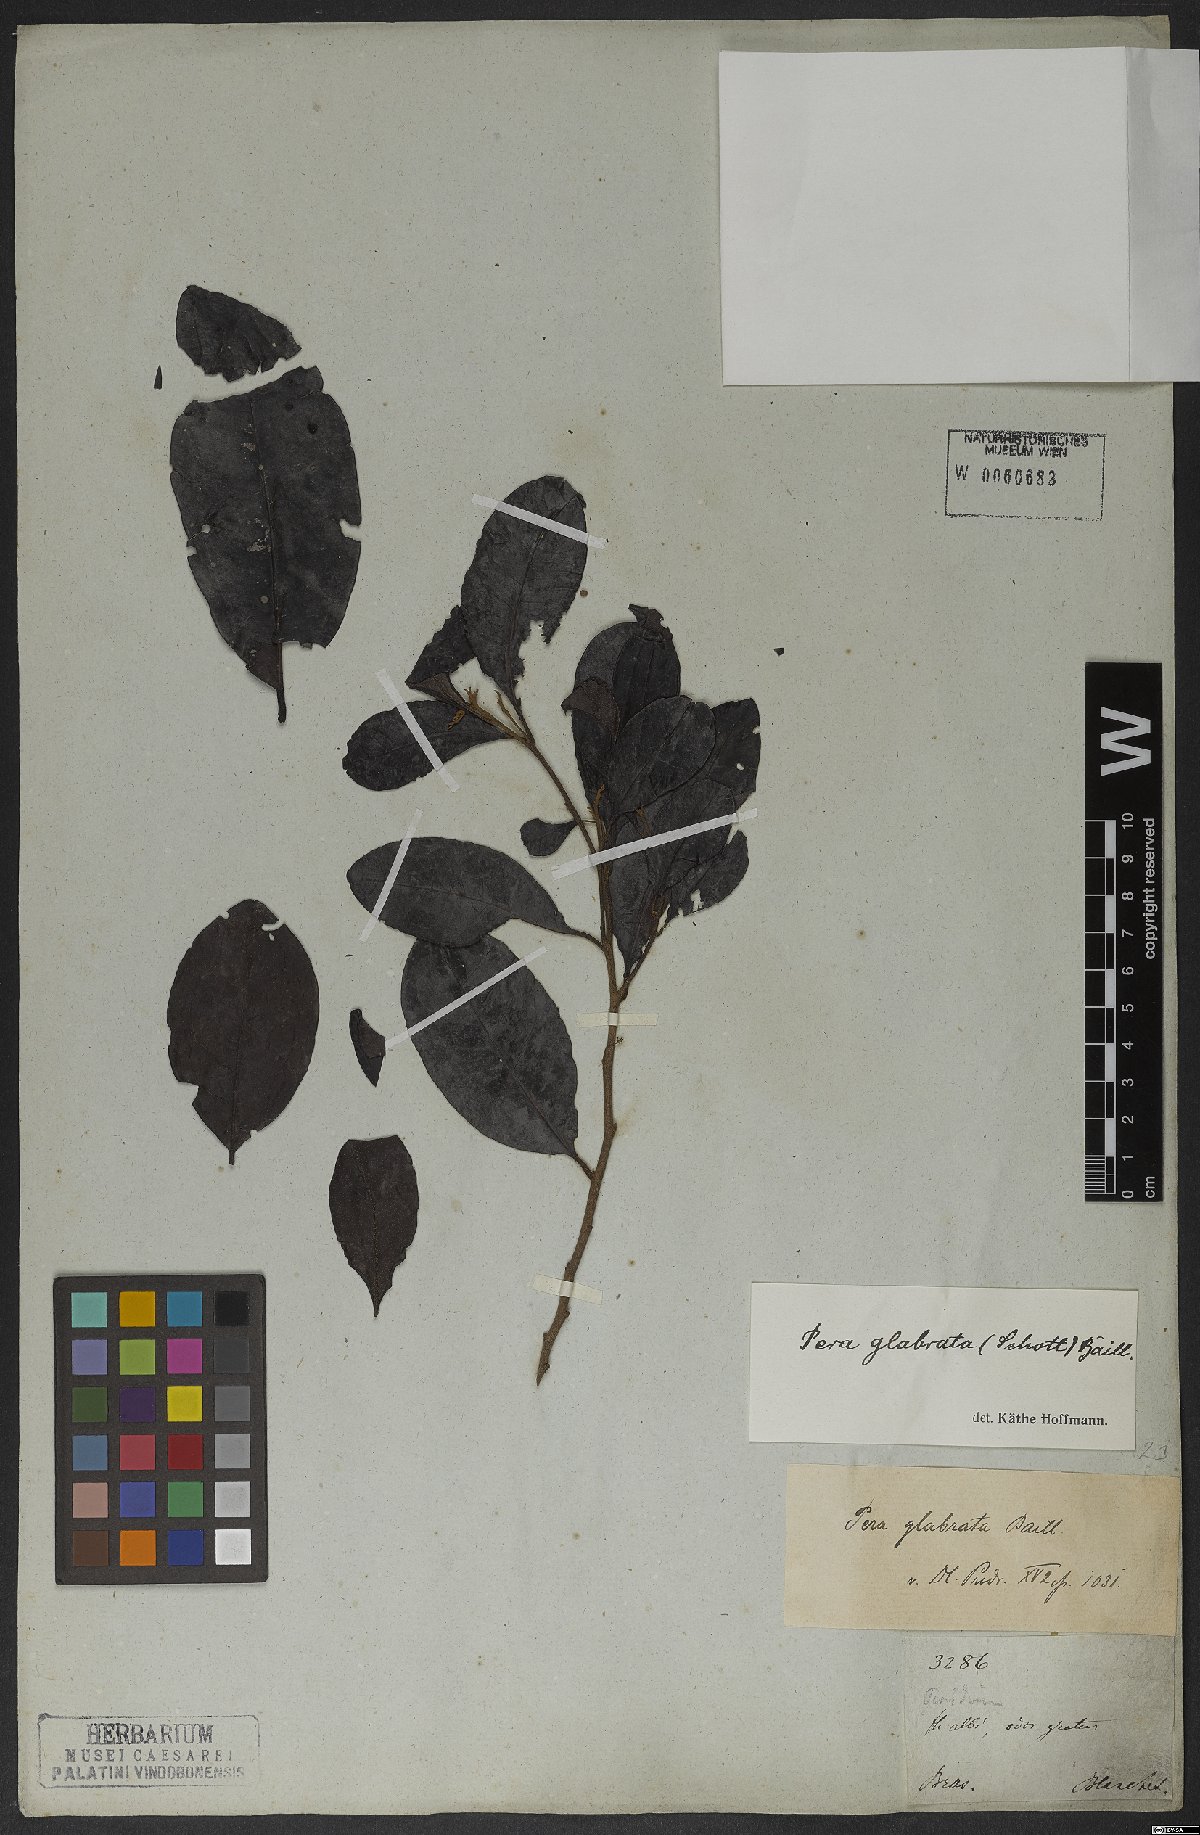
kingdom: Plantae
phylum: Tracheophyta
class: Magnoliopsida
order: Malpighiales
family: Peraceae
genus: Pera
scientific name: Pera glabrata
